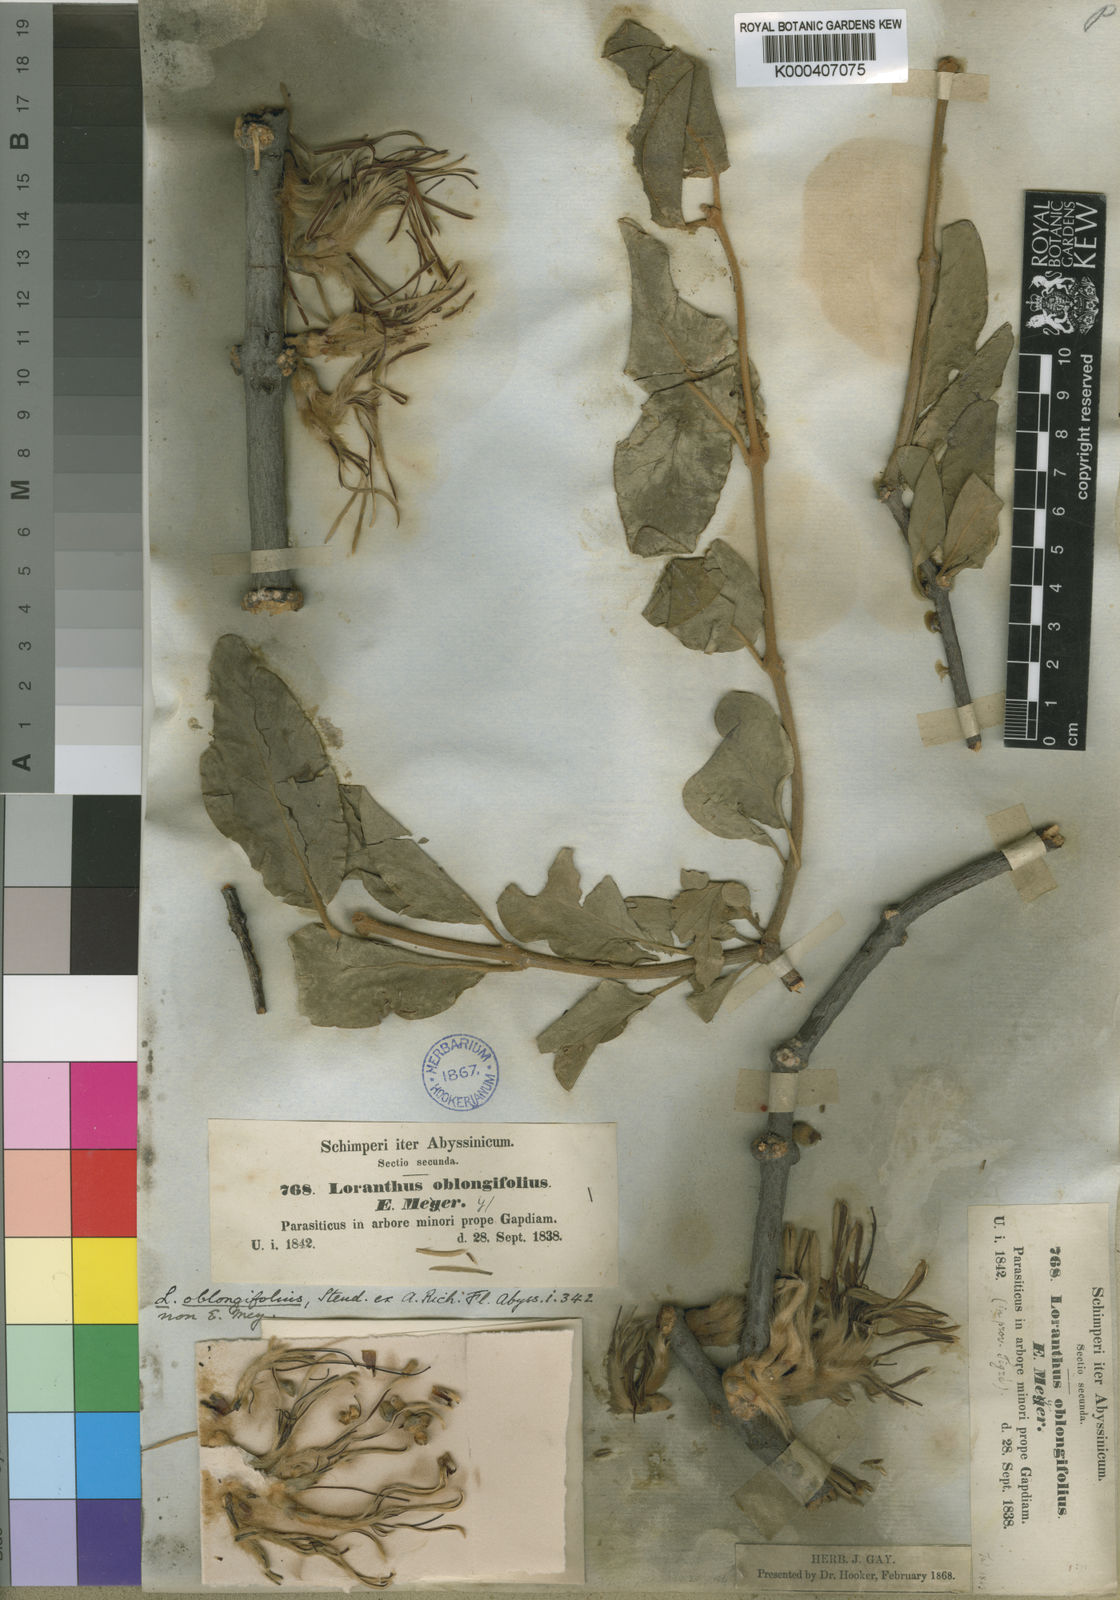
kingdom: Plantae
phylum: Tracheophyta
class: Magnoliopsida
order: Santalales
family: Loranthaceae
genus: Erianthemum
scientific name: Erianthemum dregei
